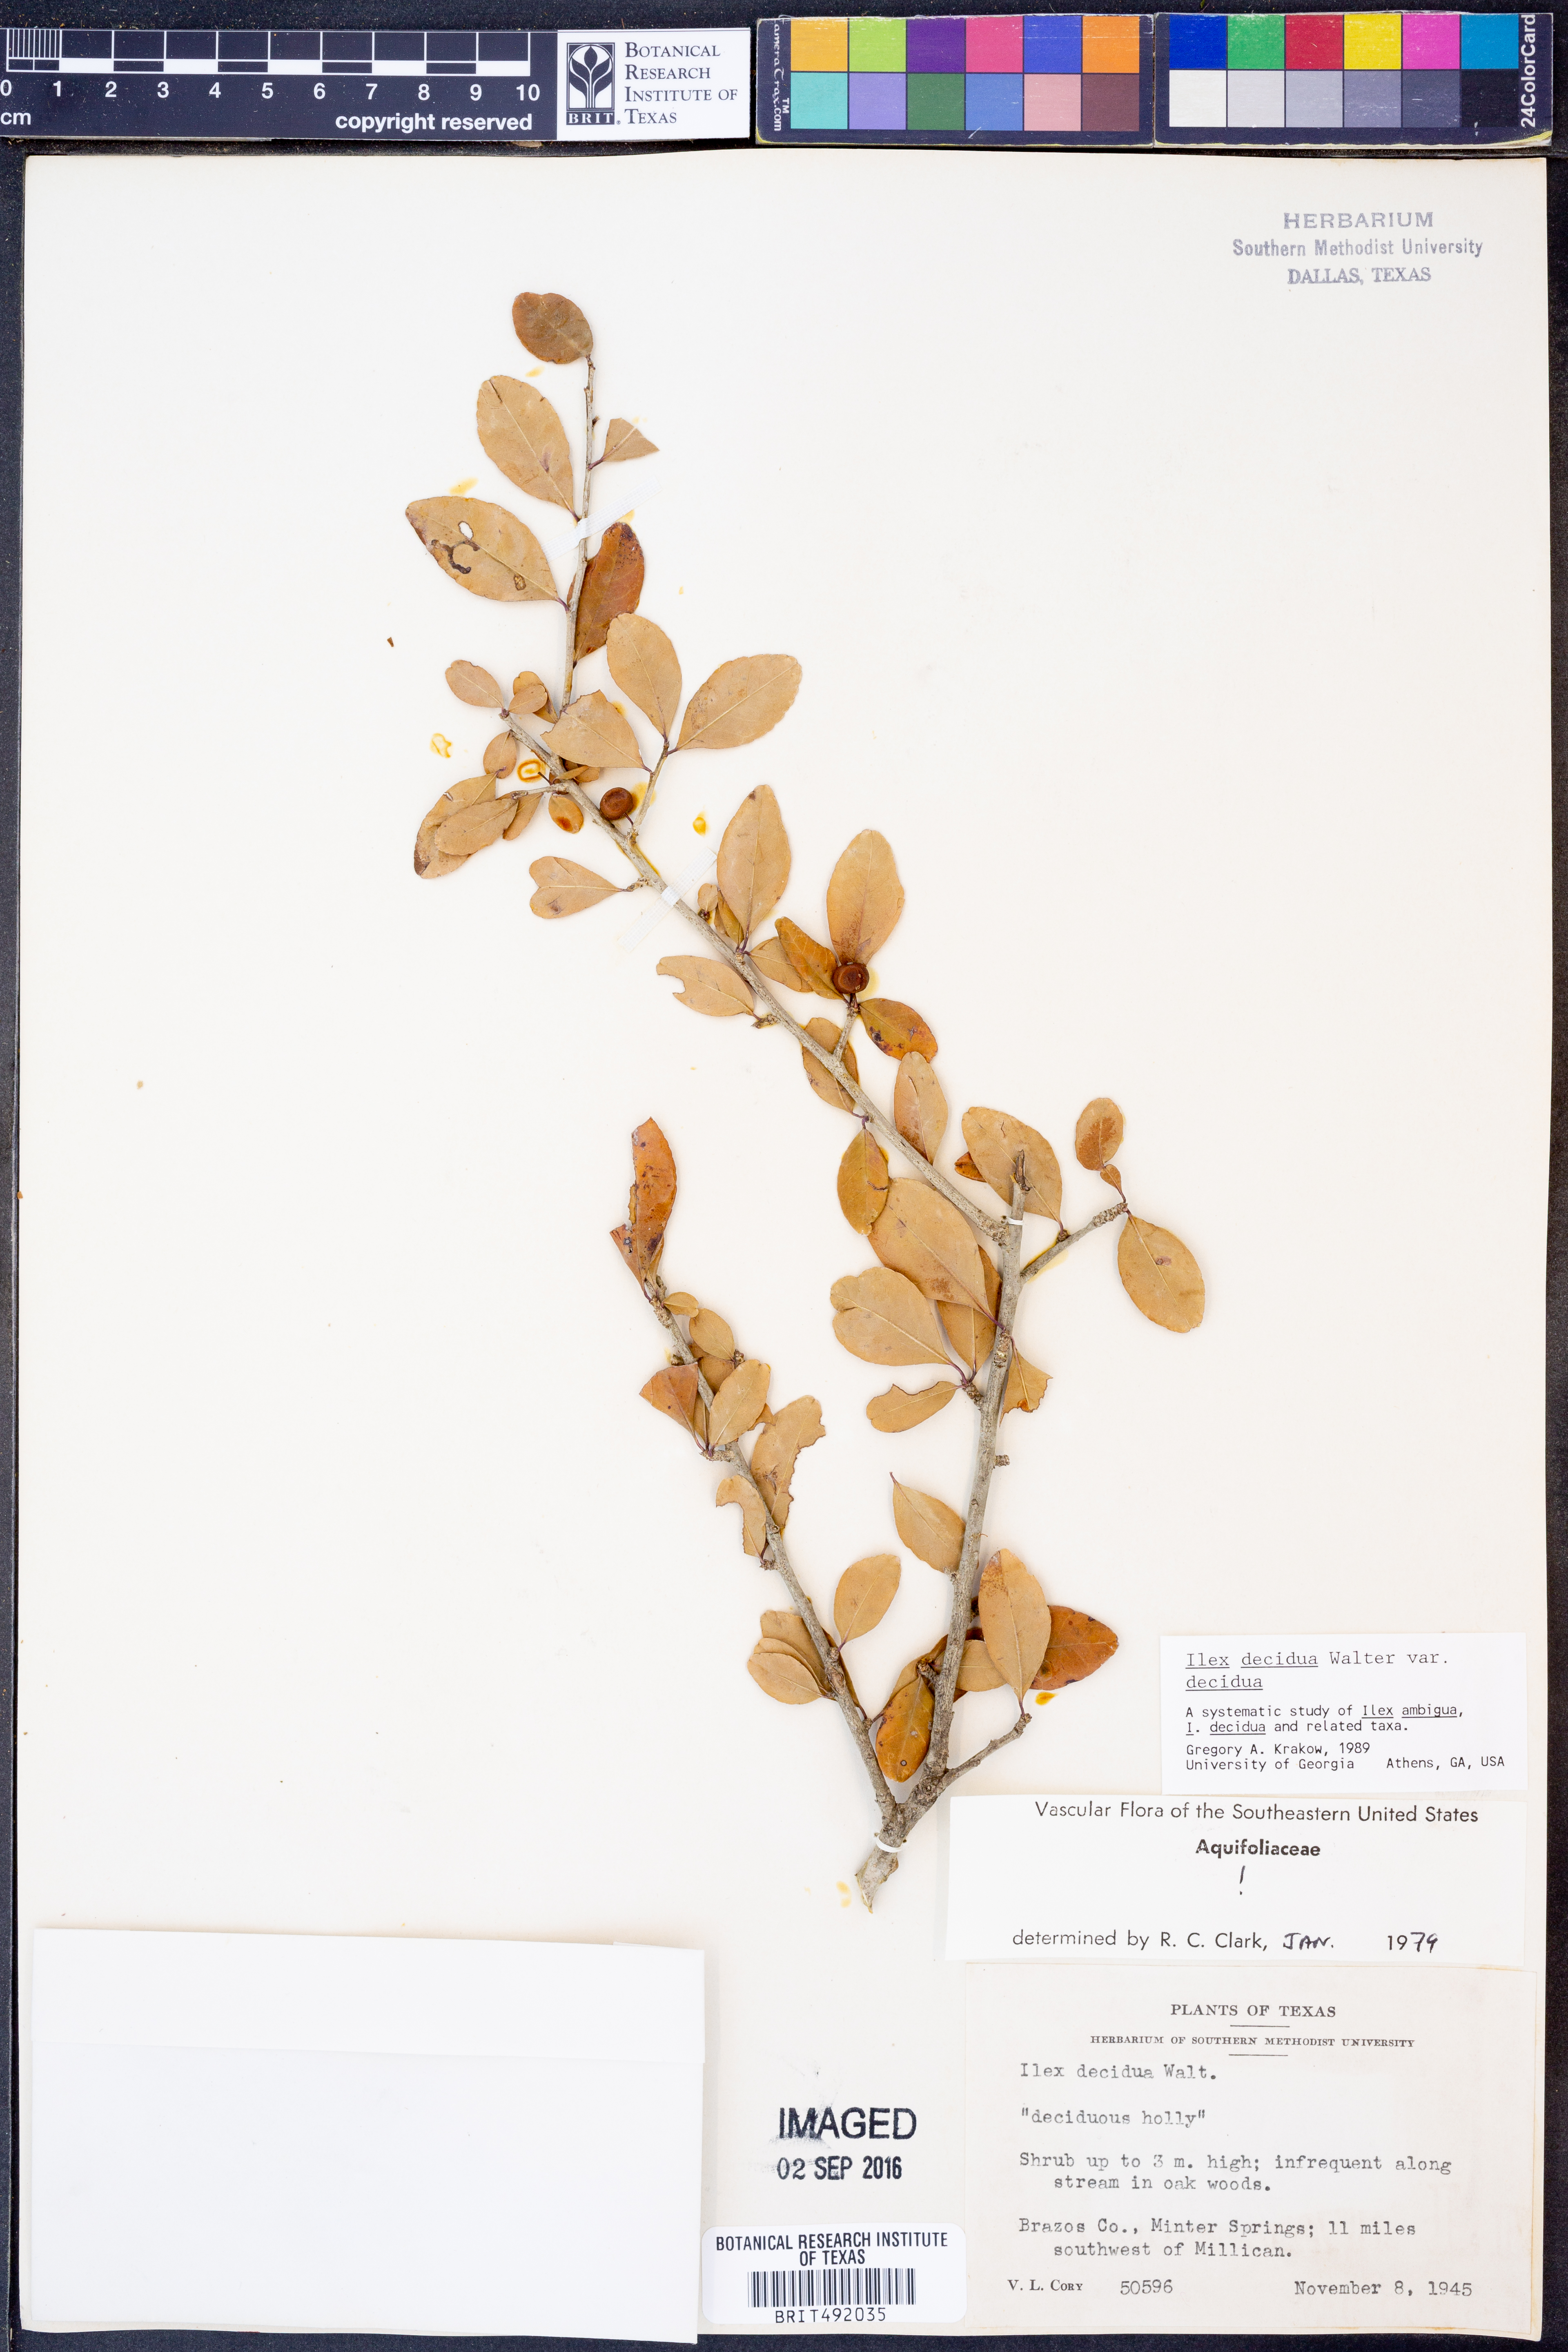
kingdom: Plantae
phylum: Tracheophyta
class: Magnoliopsida
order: Aquifoliales
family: Aquifoliaceae
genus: Ilex
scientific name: Ilex decidua
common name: Possum-haw
